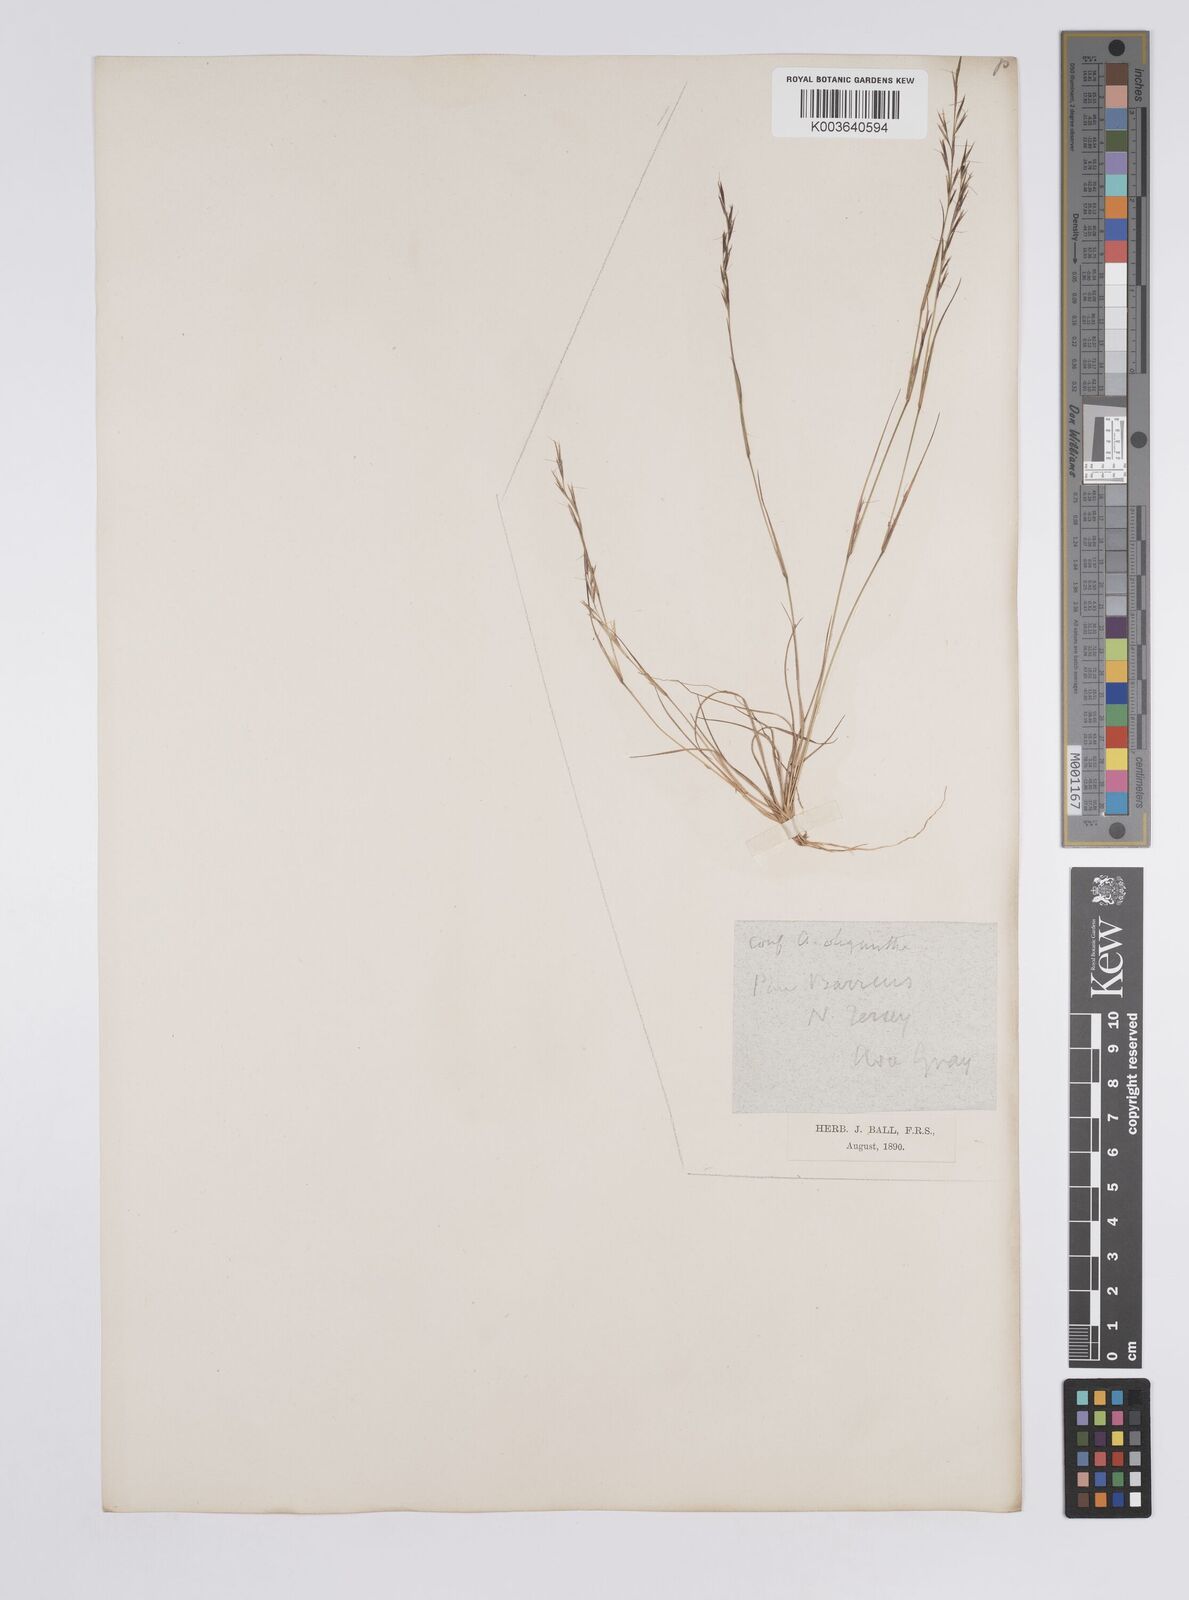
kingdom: Plantae
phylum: Tracheophyta
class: Liliopsida
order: Poales
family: Poaceae
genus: Aristida
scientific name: Aristida dichotoma
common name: Churchmouse three-awn
